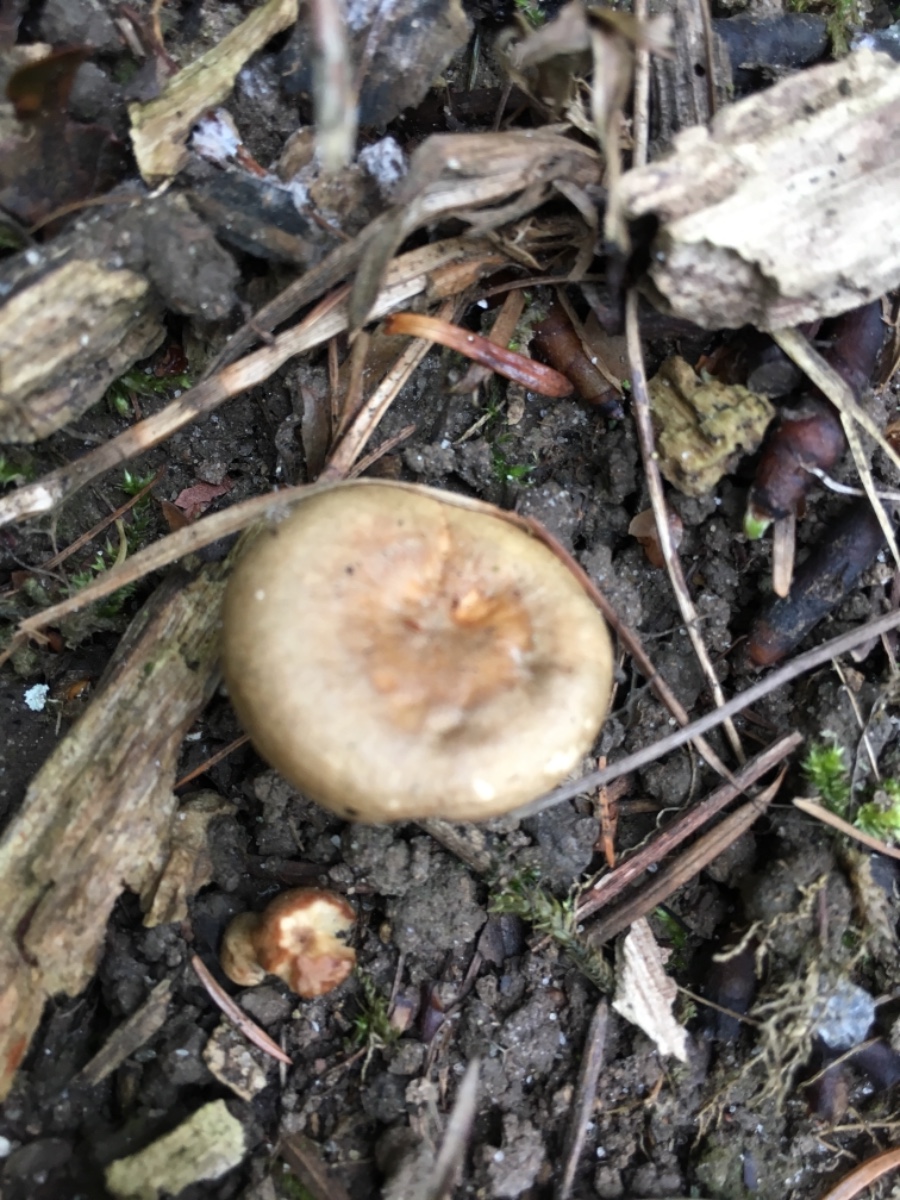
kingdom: Fungi
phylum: Basidiomycota
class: Agaricomycetes
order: Russulales
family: Russulaceae
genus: Lactarius
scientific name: Lactarius pyrogalus
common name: hassel-mælkehat
